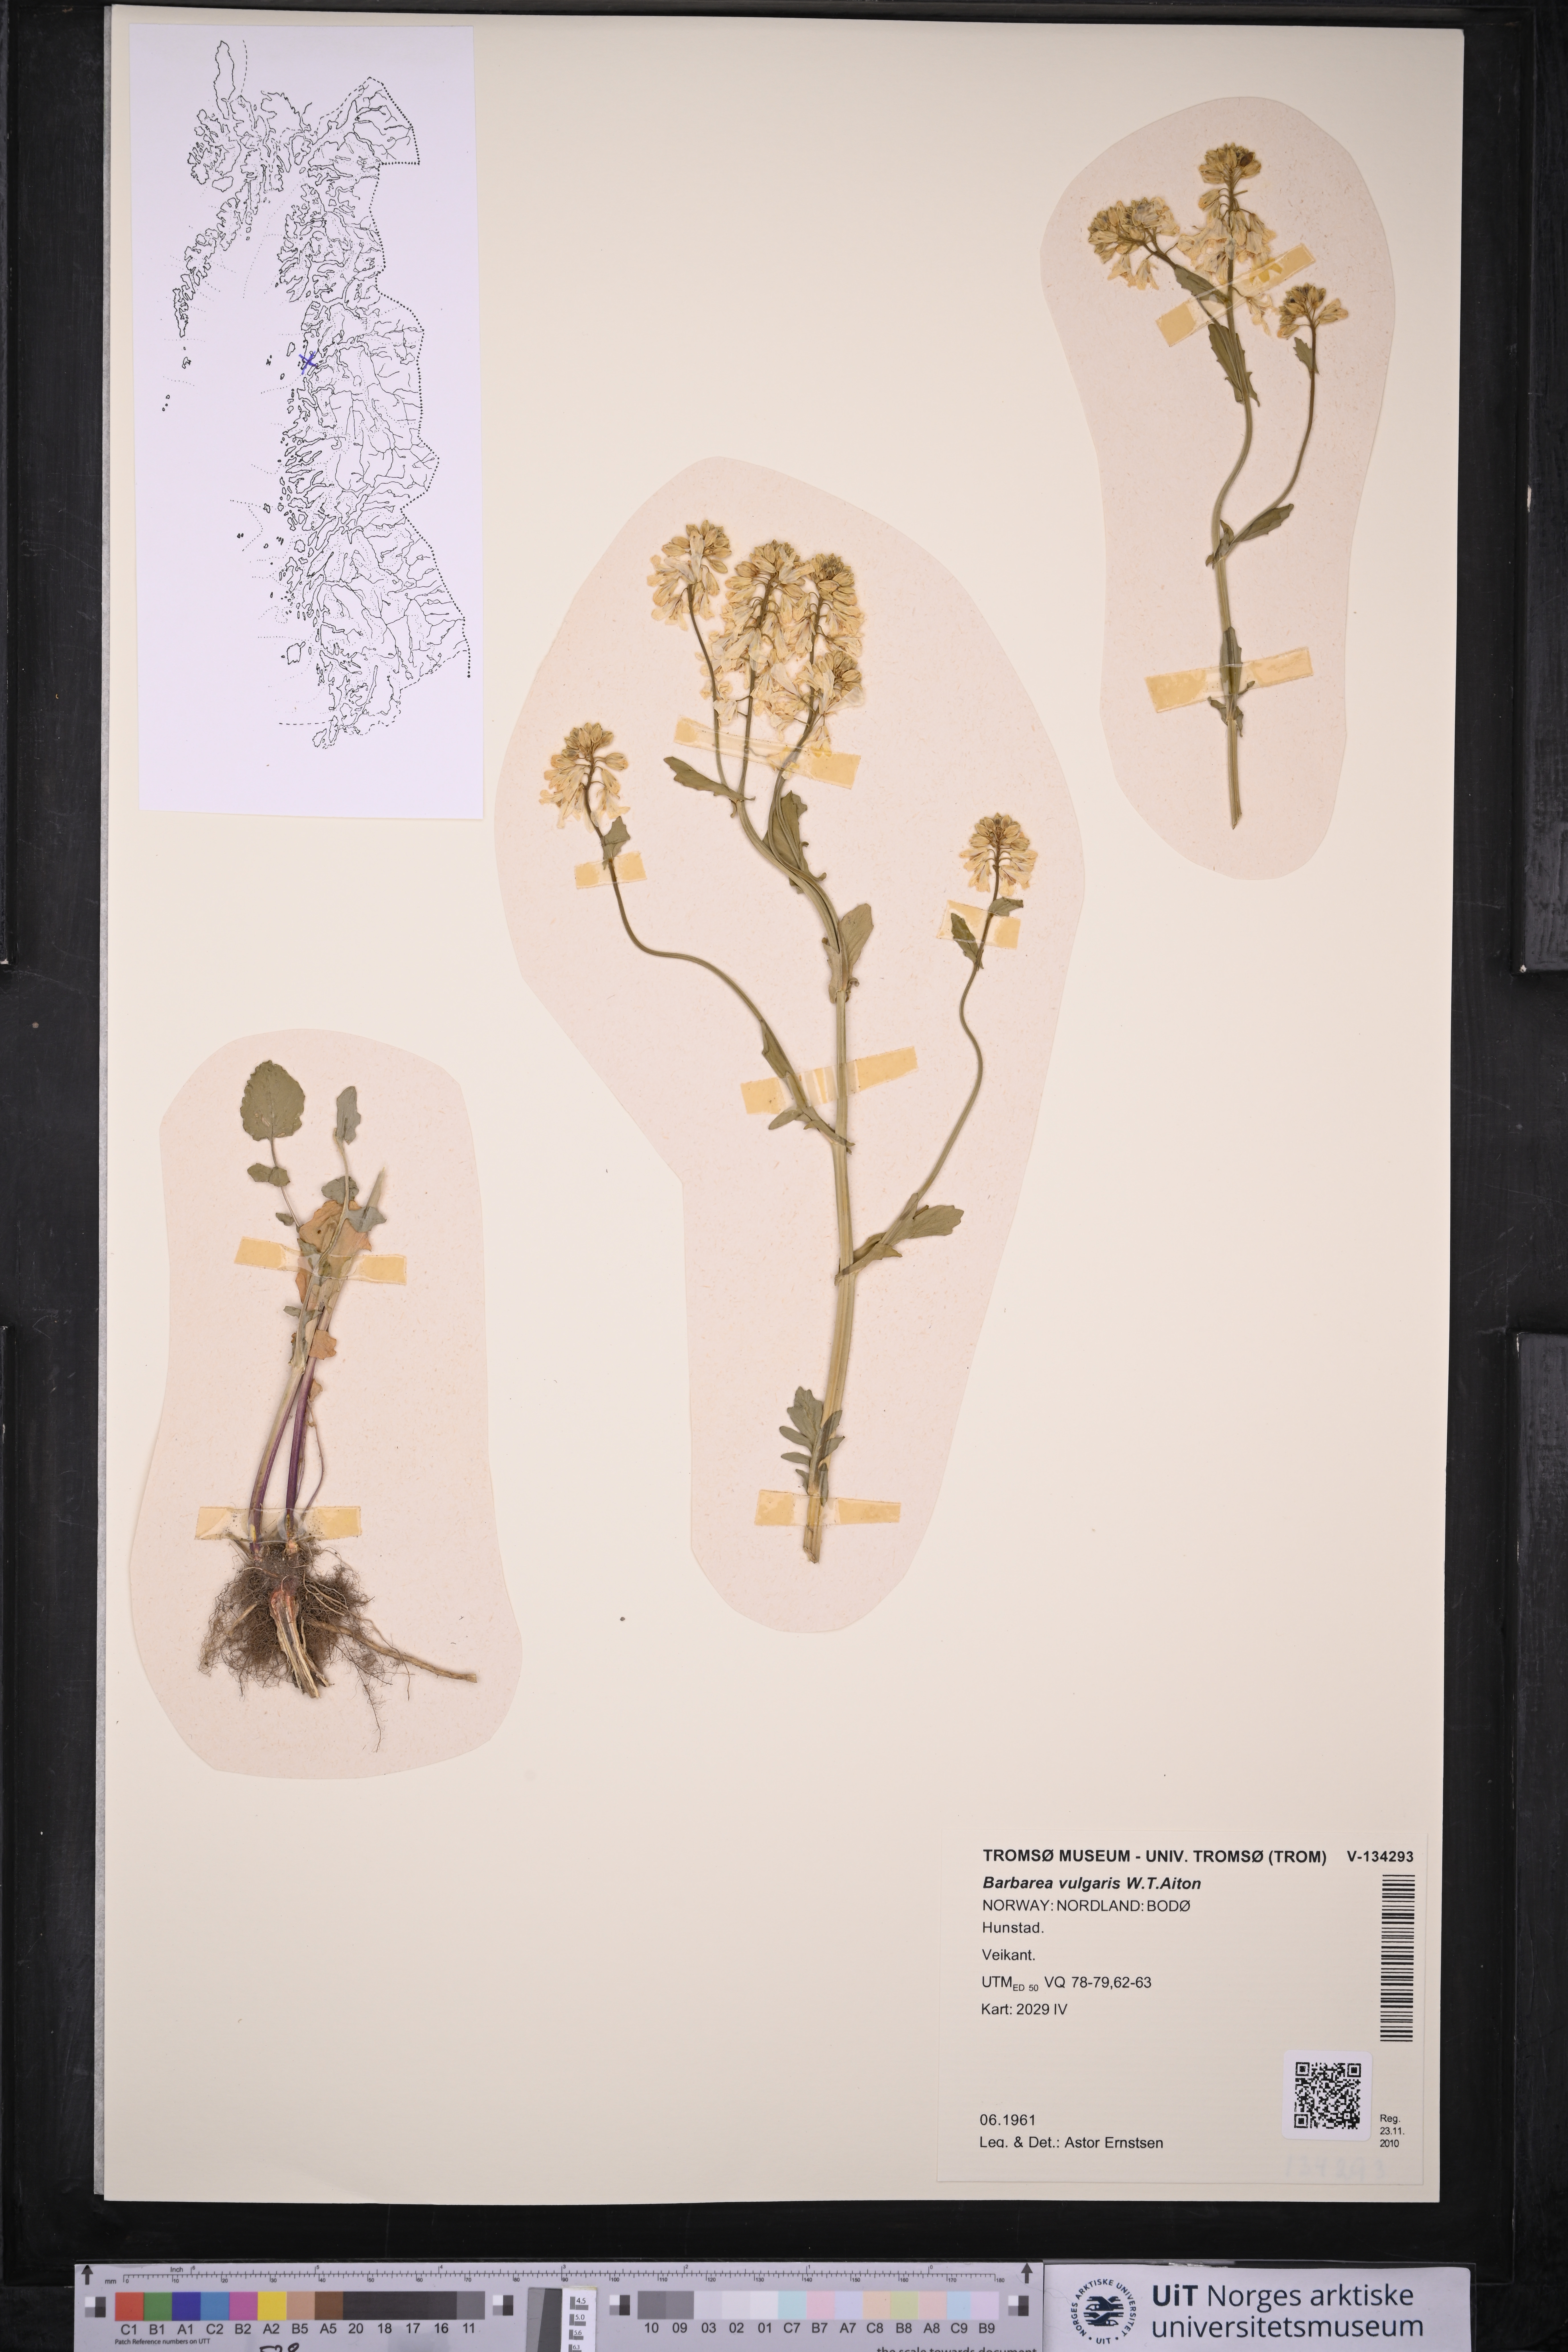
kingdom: Plantae
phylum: Tracheophyta
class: Magnoliopsida
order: Brassicales
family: Brassicaceae
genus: Barbarea
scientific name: Barbarea vulgaris
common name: Cressy-greens
